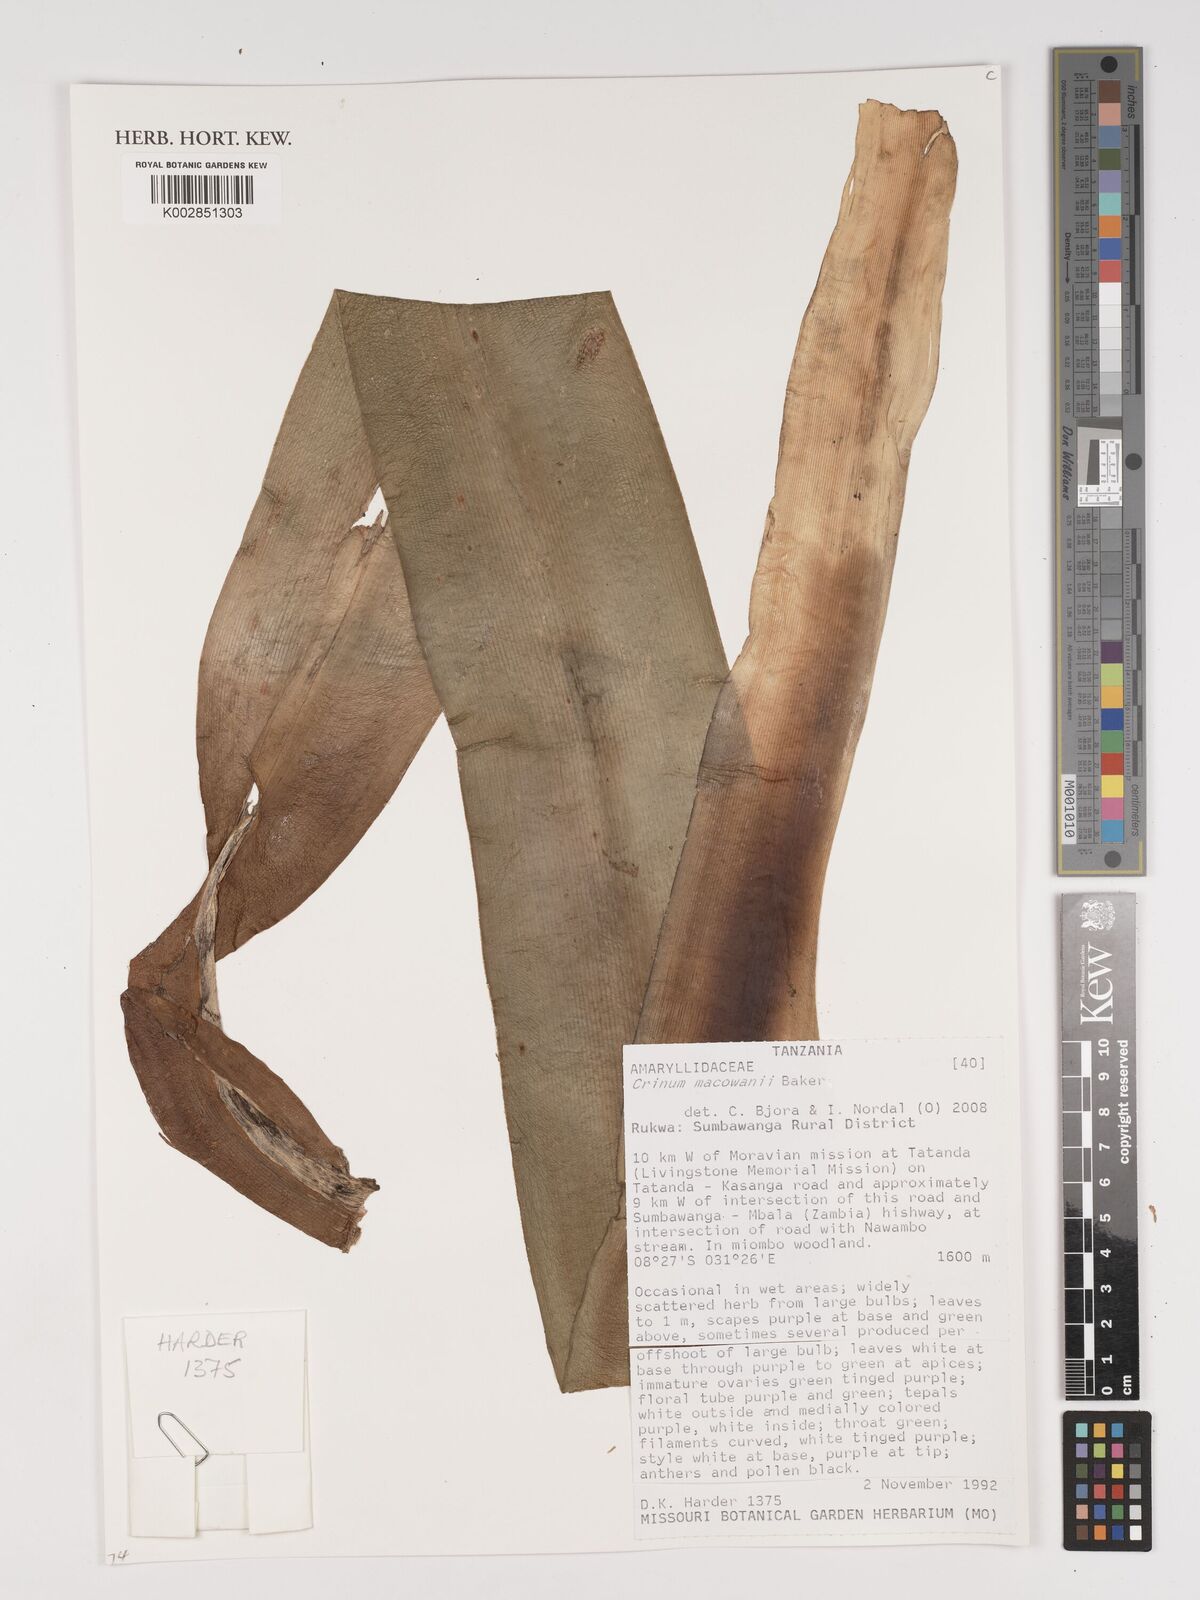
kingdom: Plantae
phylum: Tracheophyta
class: Liliopsida
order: Asparagales
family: Amaryllidaceae
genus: Crinum
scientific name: Crinum macowanii
